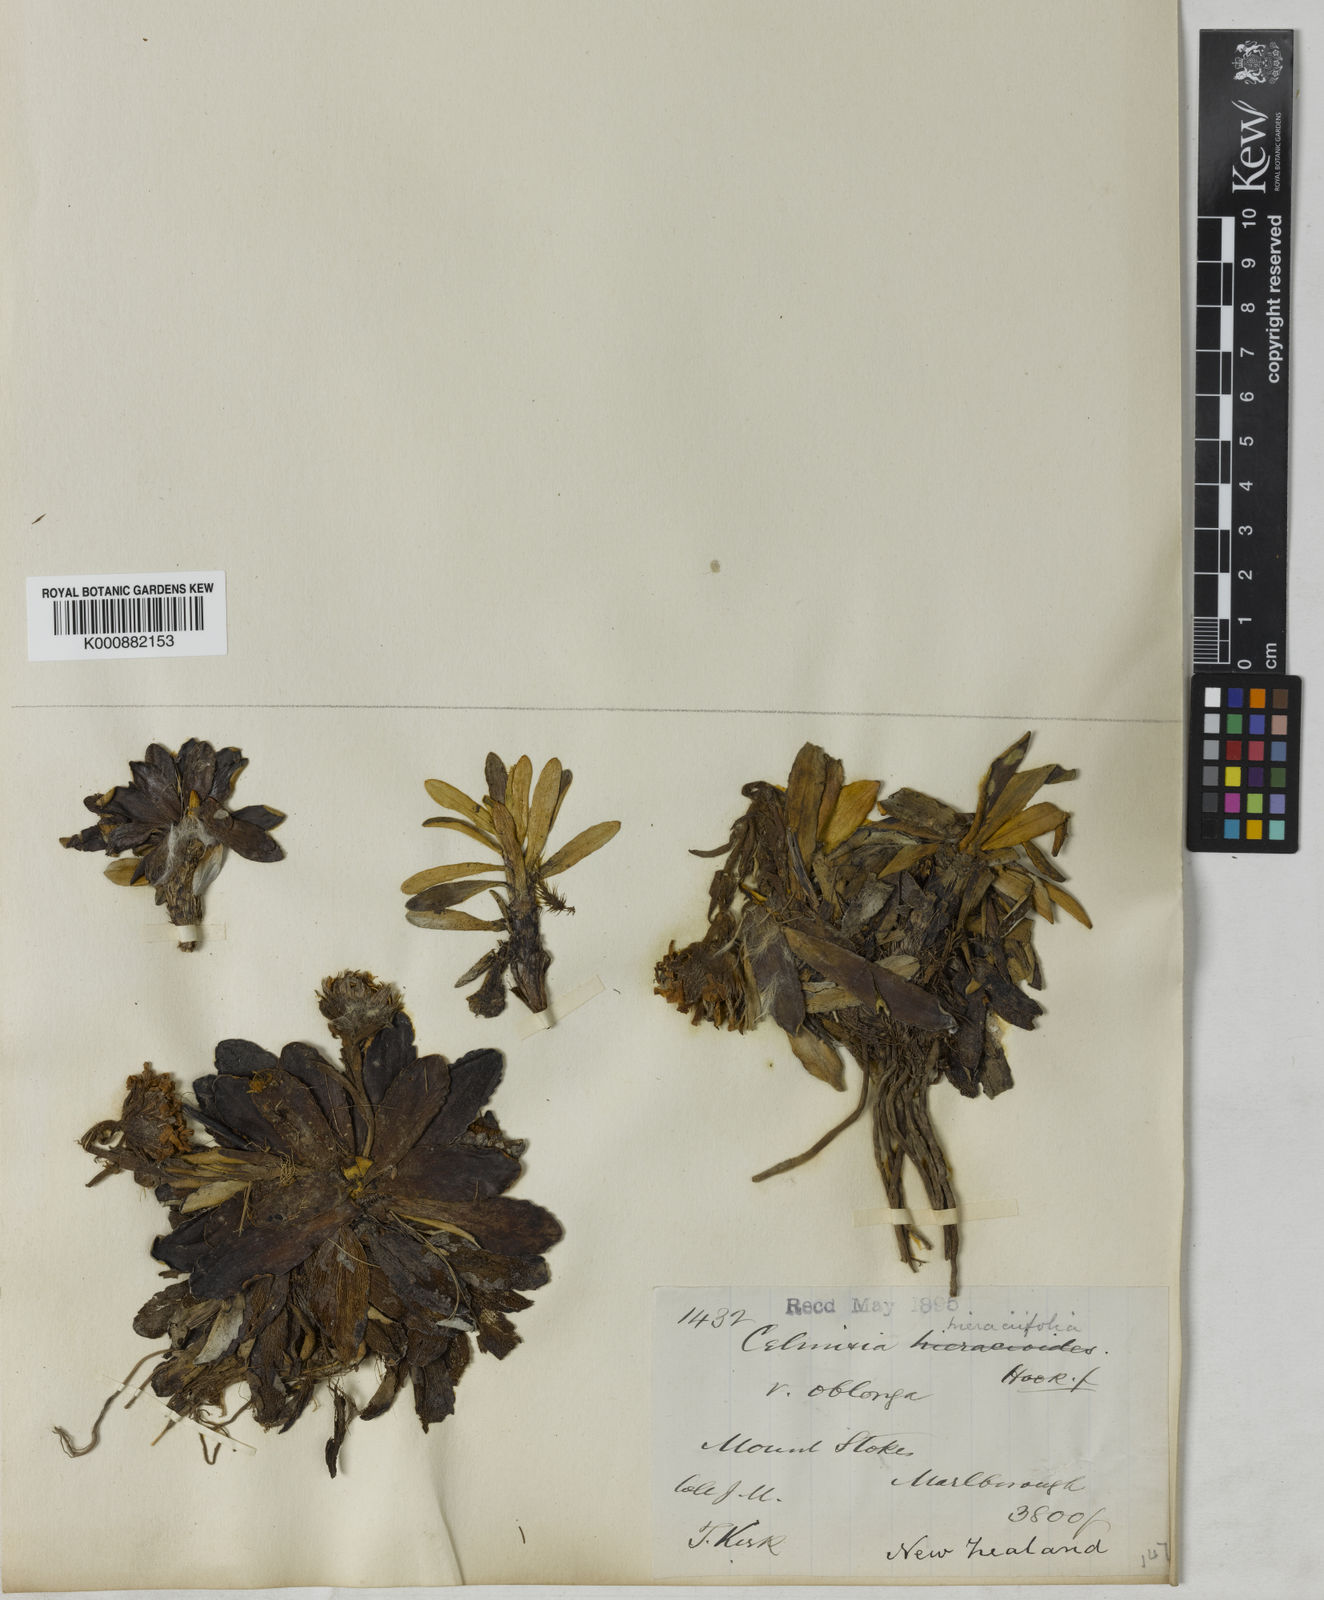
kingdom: Plantae
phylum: Tracheophyta
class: Magnoliopsida
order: Asterales
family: Asteraceae
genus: Celmisia
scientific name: Celmisia hieraciifolia
